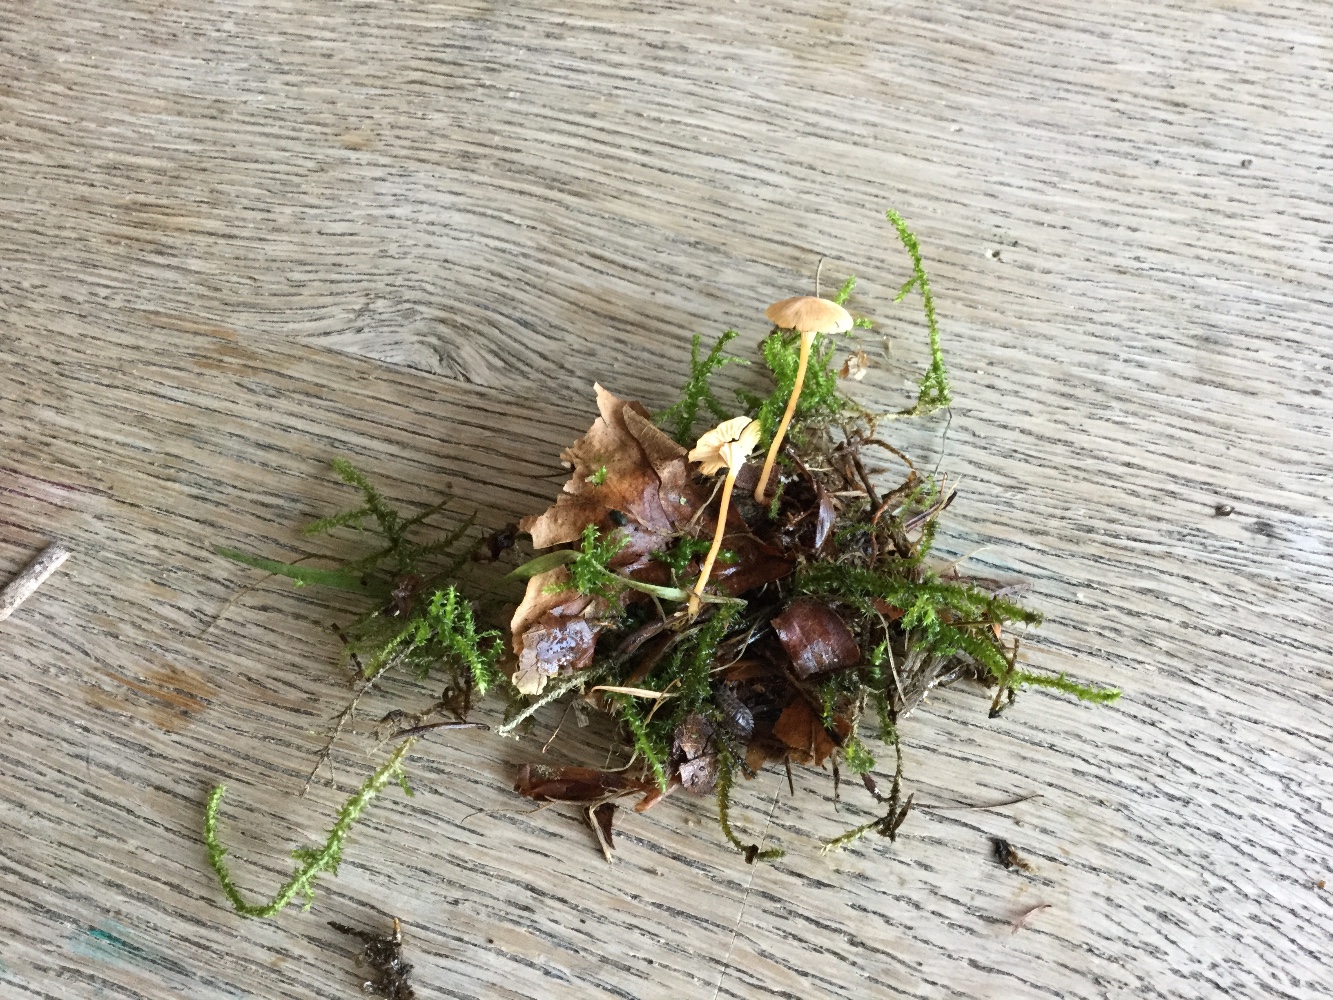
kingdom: Fungi
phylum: Basidiomycota
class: Agaricomycetes
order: Hymenochaetales
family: Rickenellaceae
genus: Rickenella
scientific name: Rickenella fibula
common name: orange mosnavlehat
